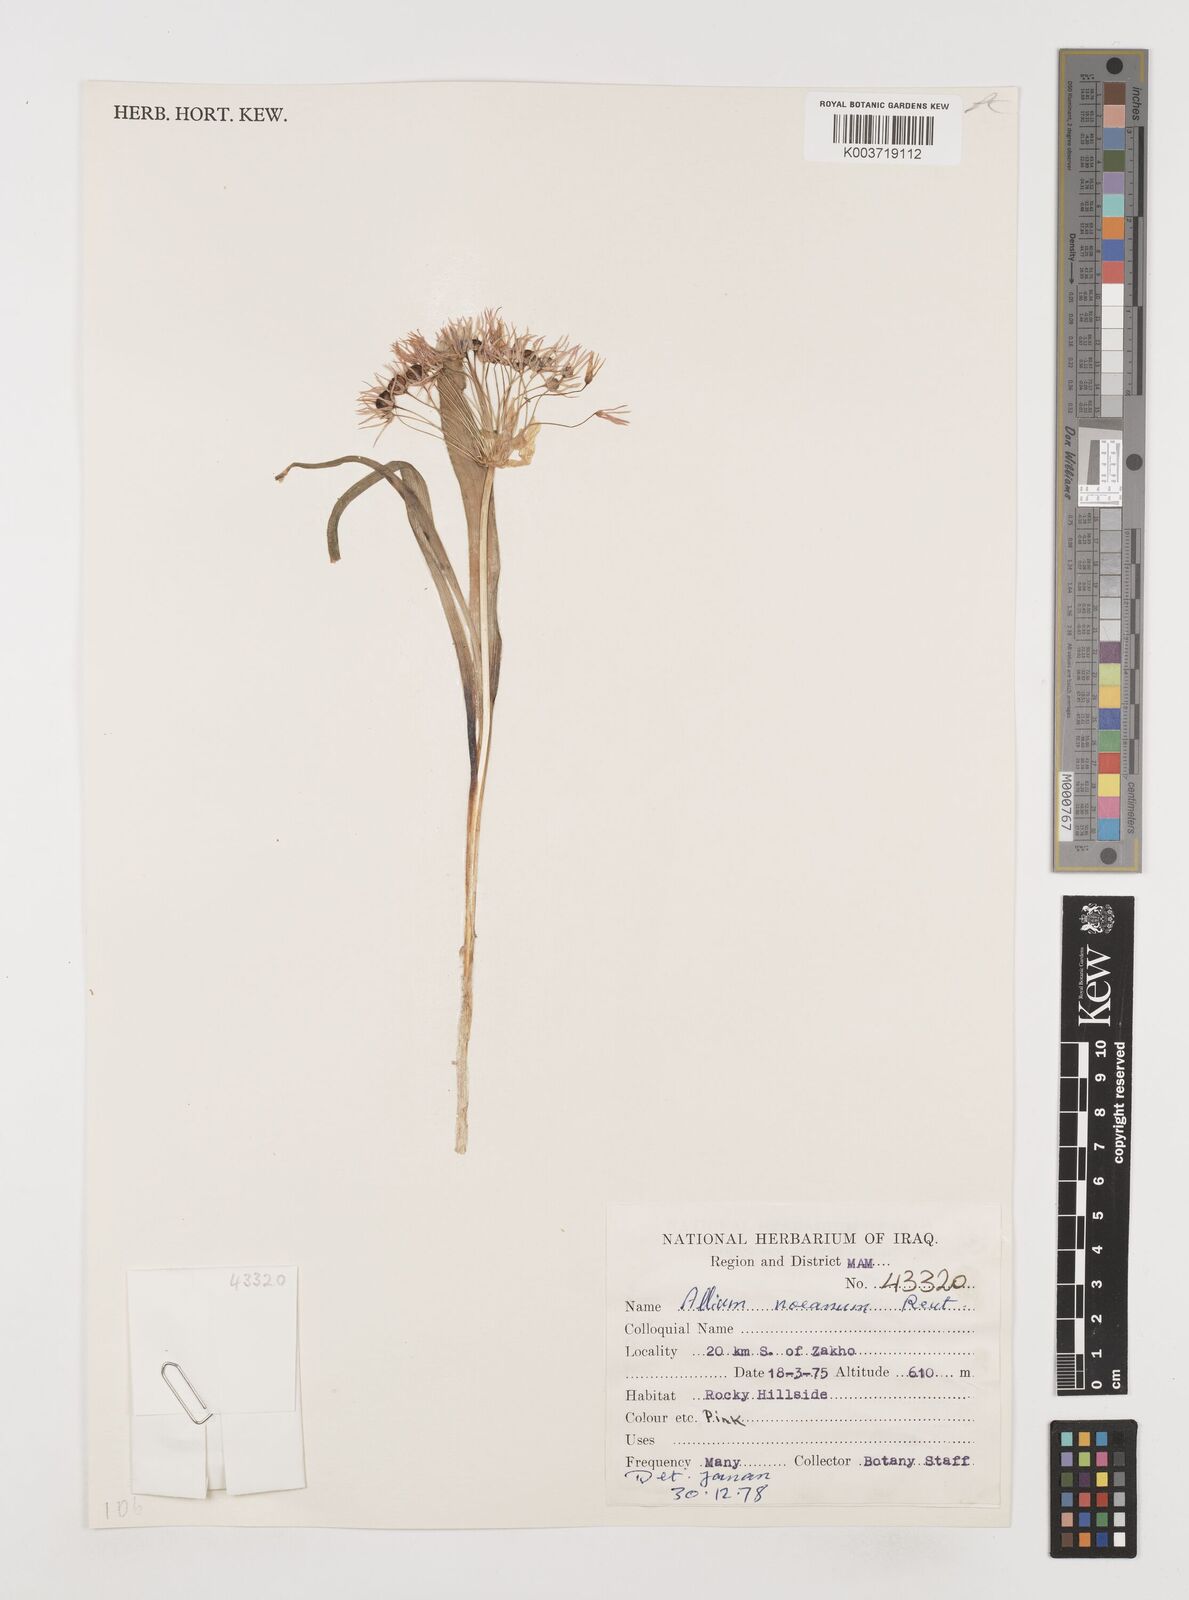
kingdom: Plantae
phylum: Tracheophyta
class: Liliopsida
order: Asparagales
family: Amaryllidaceae
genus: Allium
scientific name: Allium noeanum
